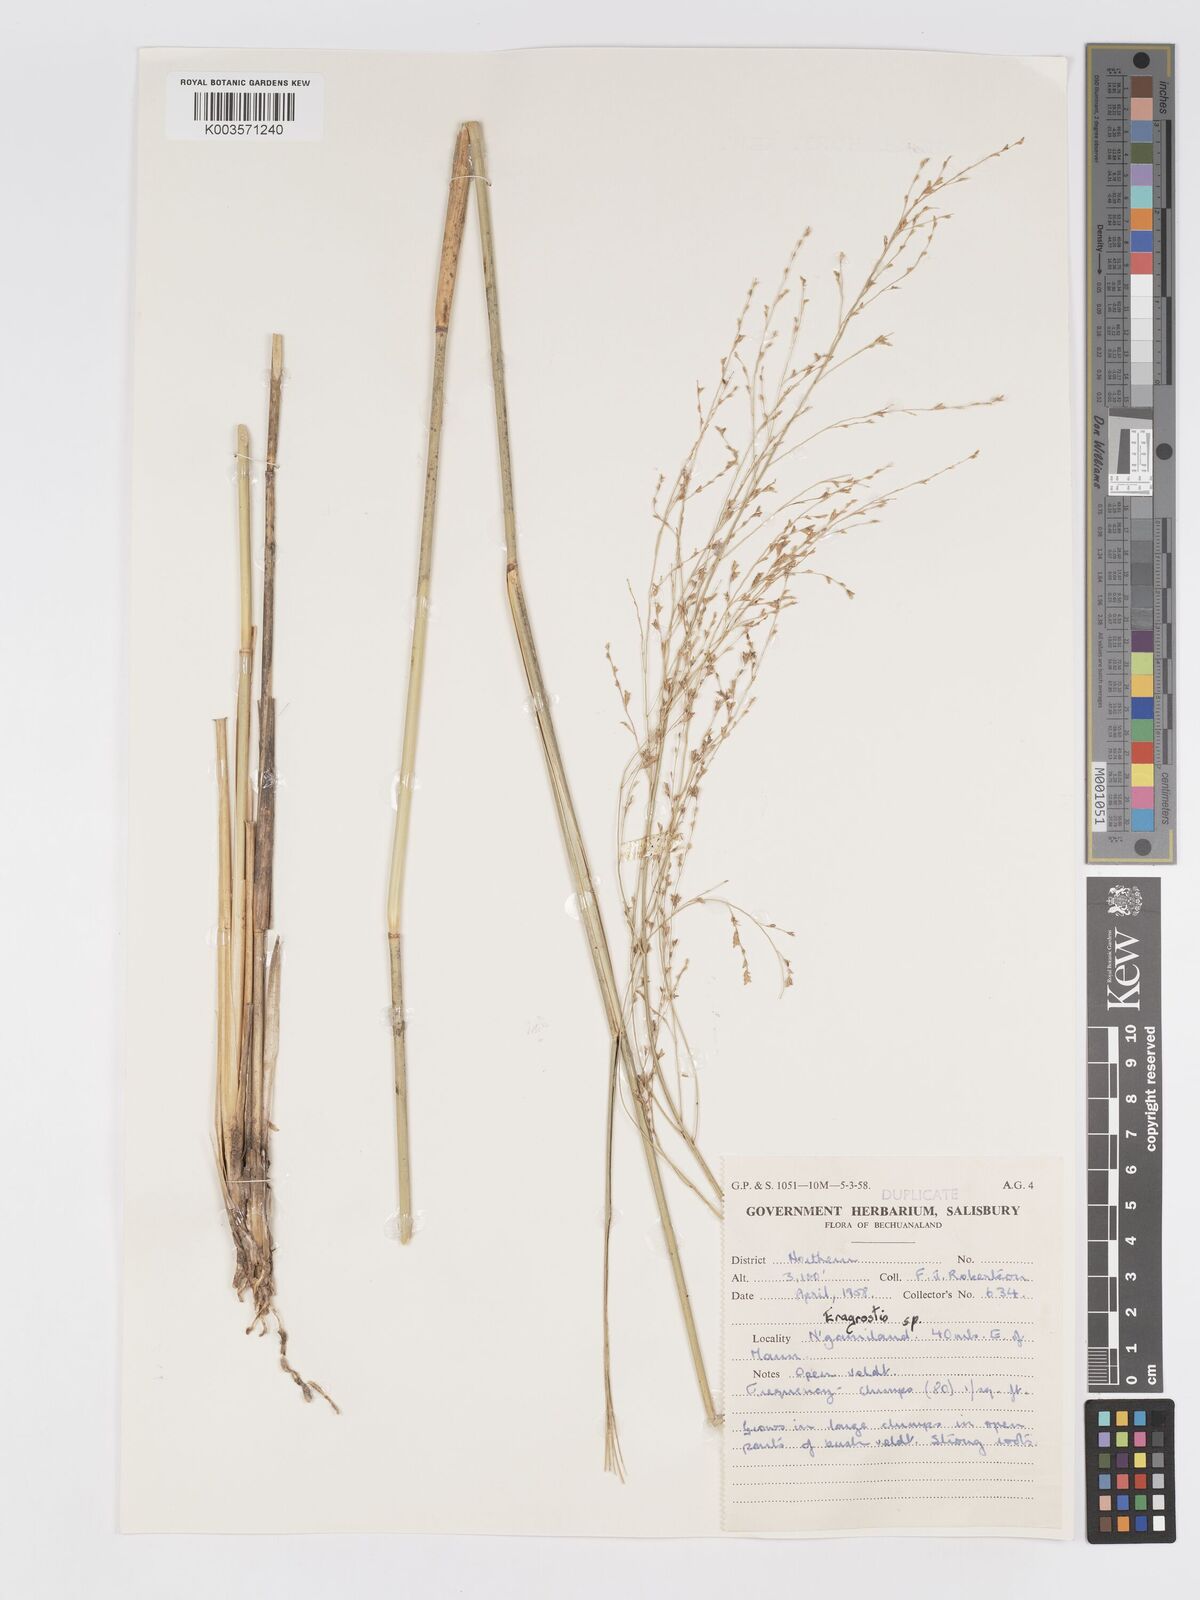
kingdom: Plantae
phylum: Tracheophyta
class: Liliopsida
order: Poales
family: Poaceae
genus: Eragrostis
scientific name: Eragrostis pallens
